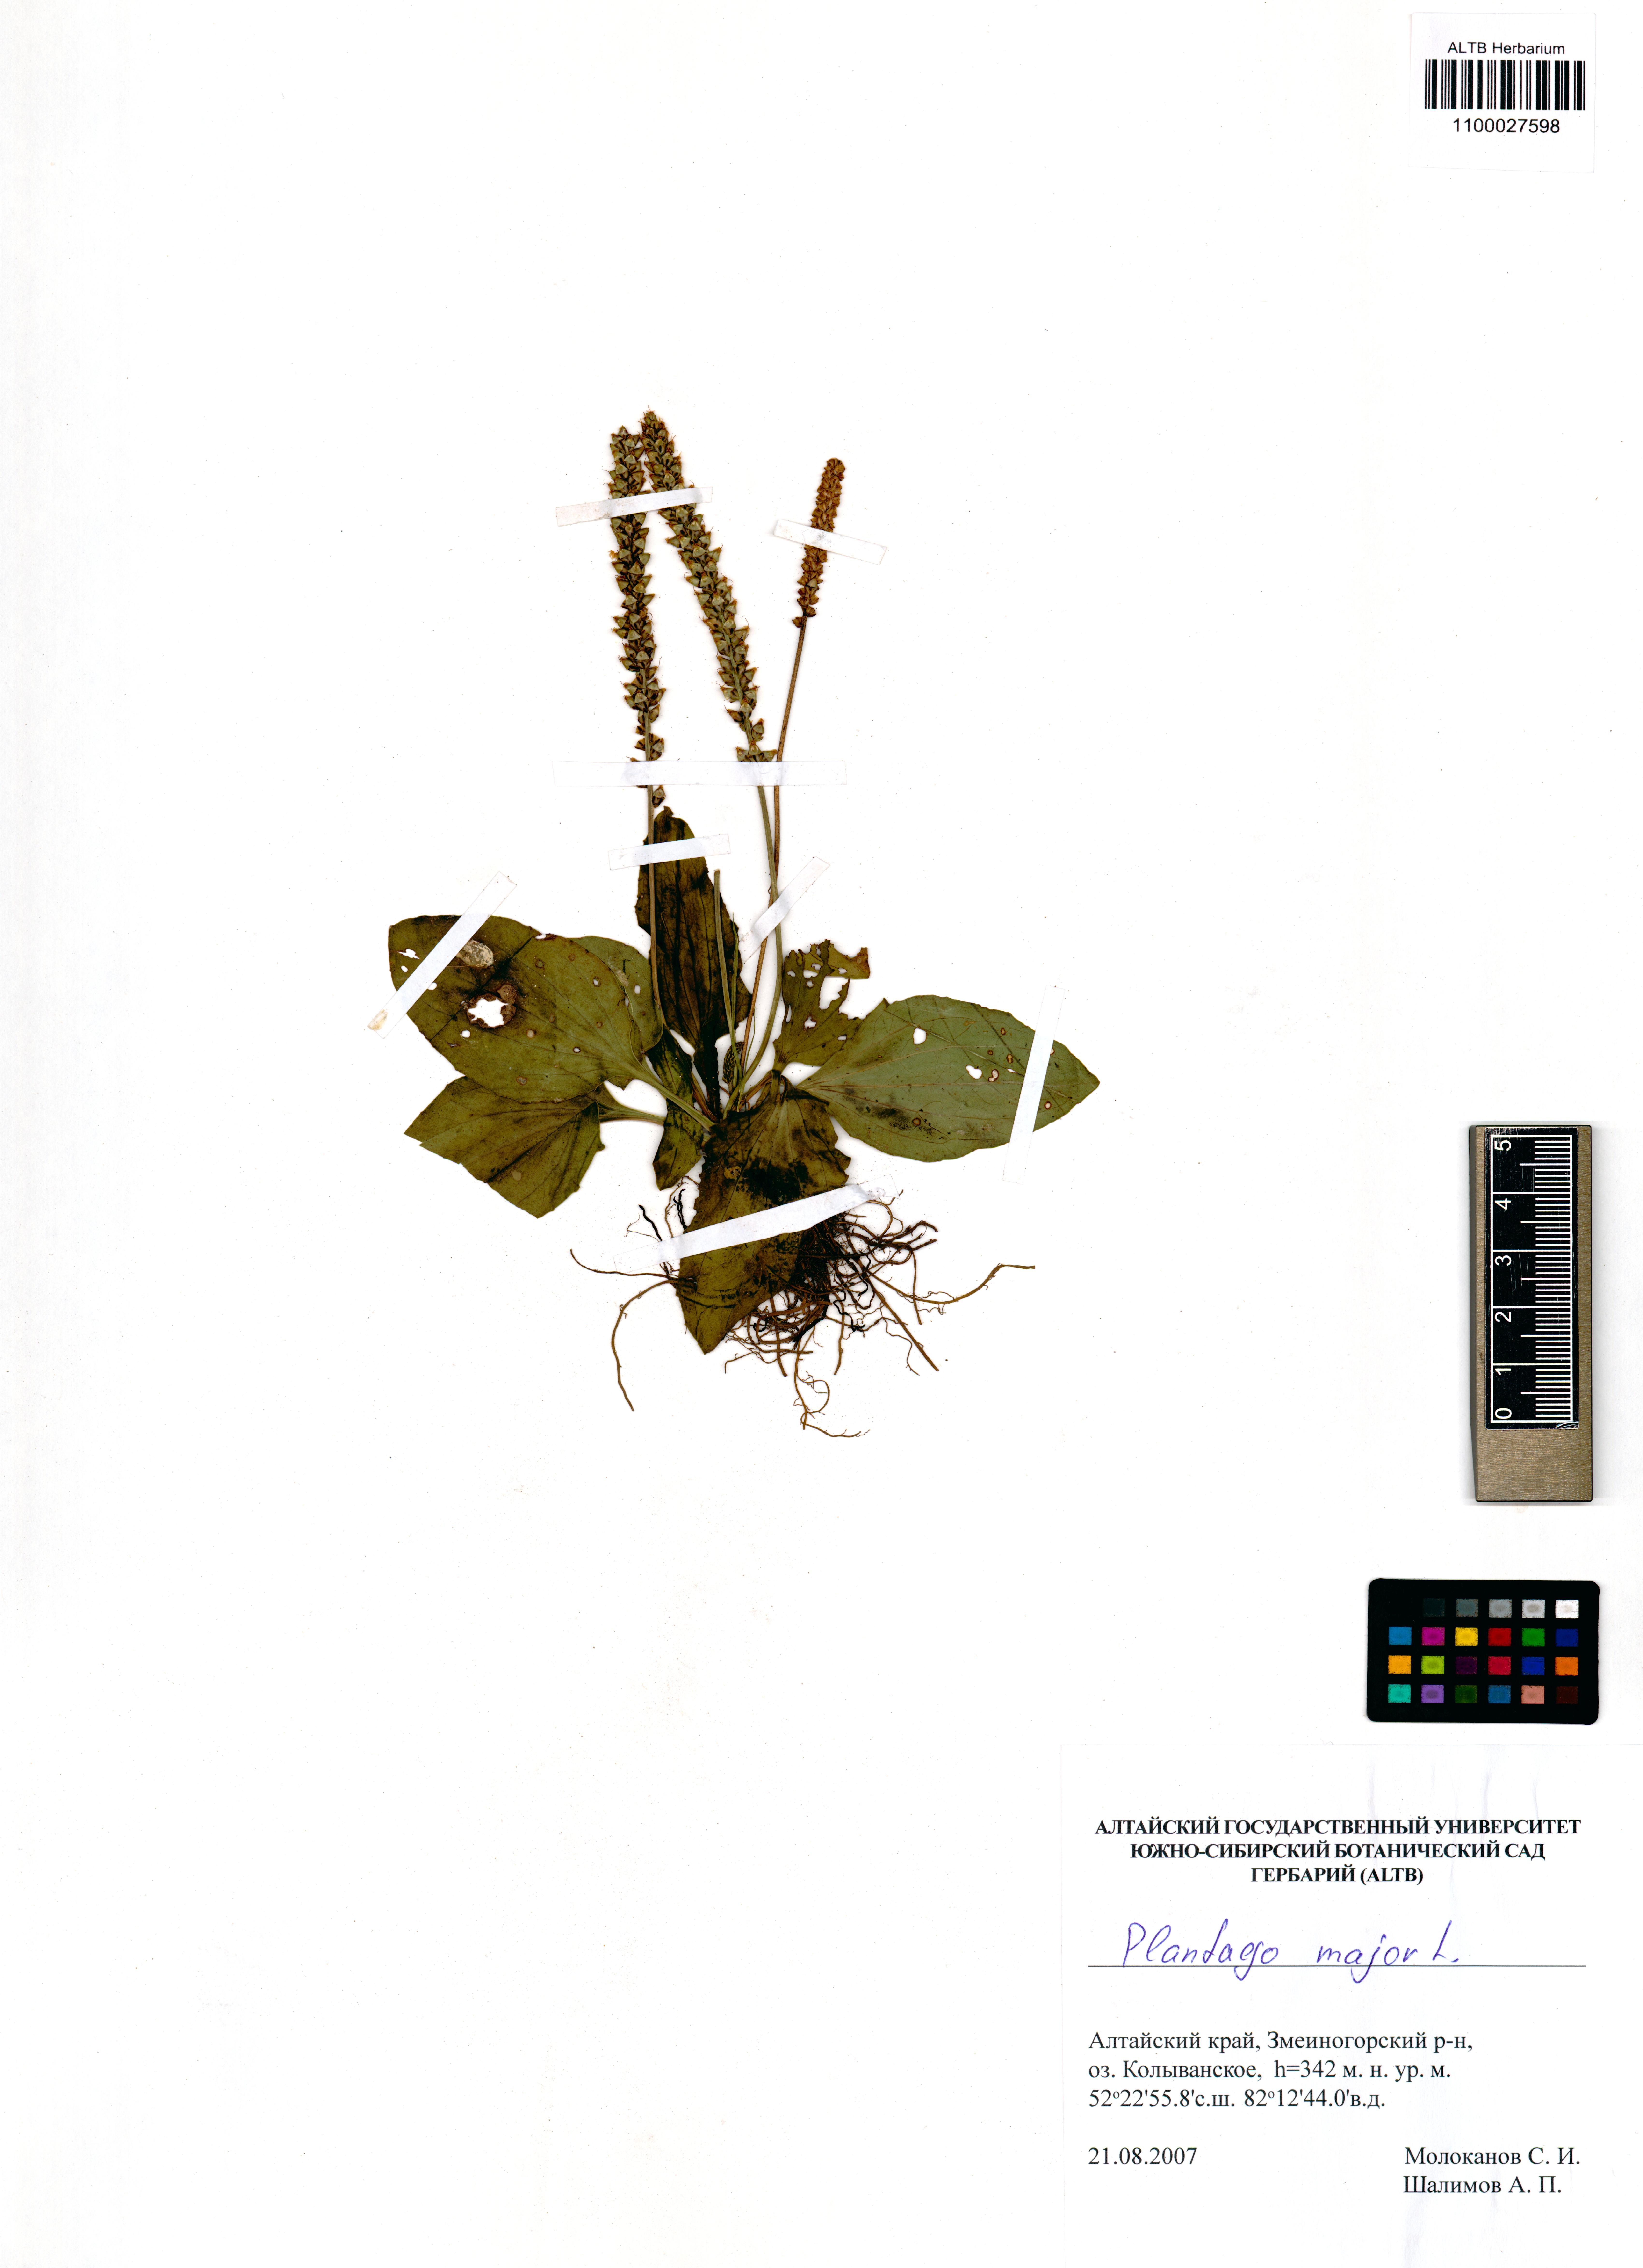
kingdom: Plantae
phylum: Tracheophyta
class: Magnoliopsida
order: Lamiales
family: Plantaginaceae
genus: Plantago
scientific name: Plantago major
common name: Common plantain
